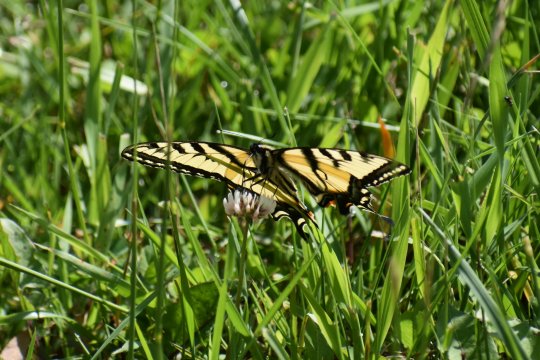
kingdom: Animalia
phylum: Arthropoda
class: Insecta
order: Lepidoptera
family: Papilionidae
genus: Pterourus
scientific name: Pterourus canadensis
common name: Canadian Tiger Swallowtail
